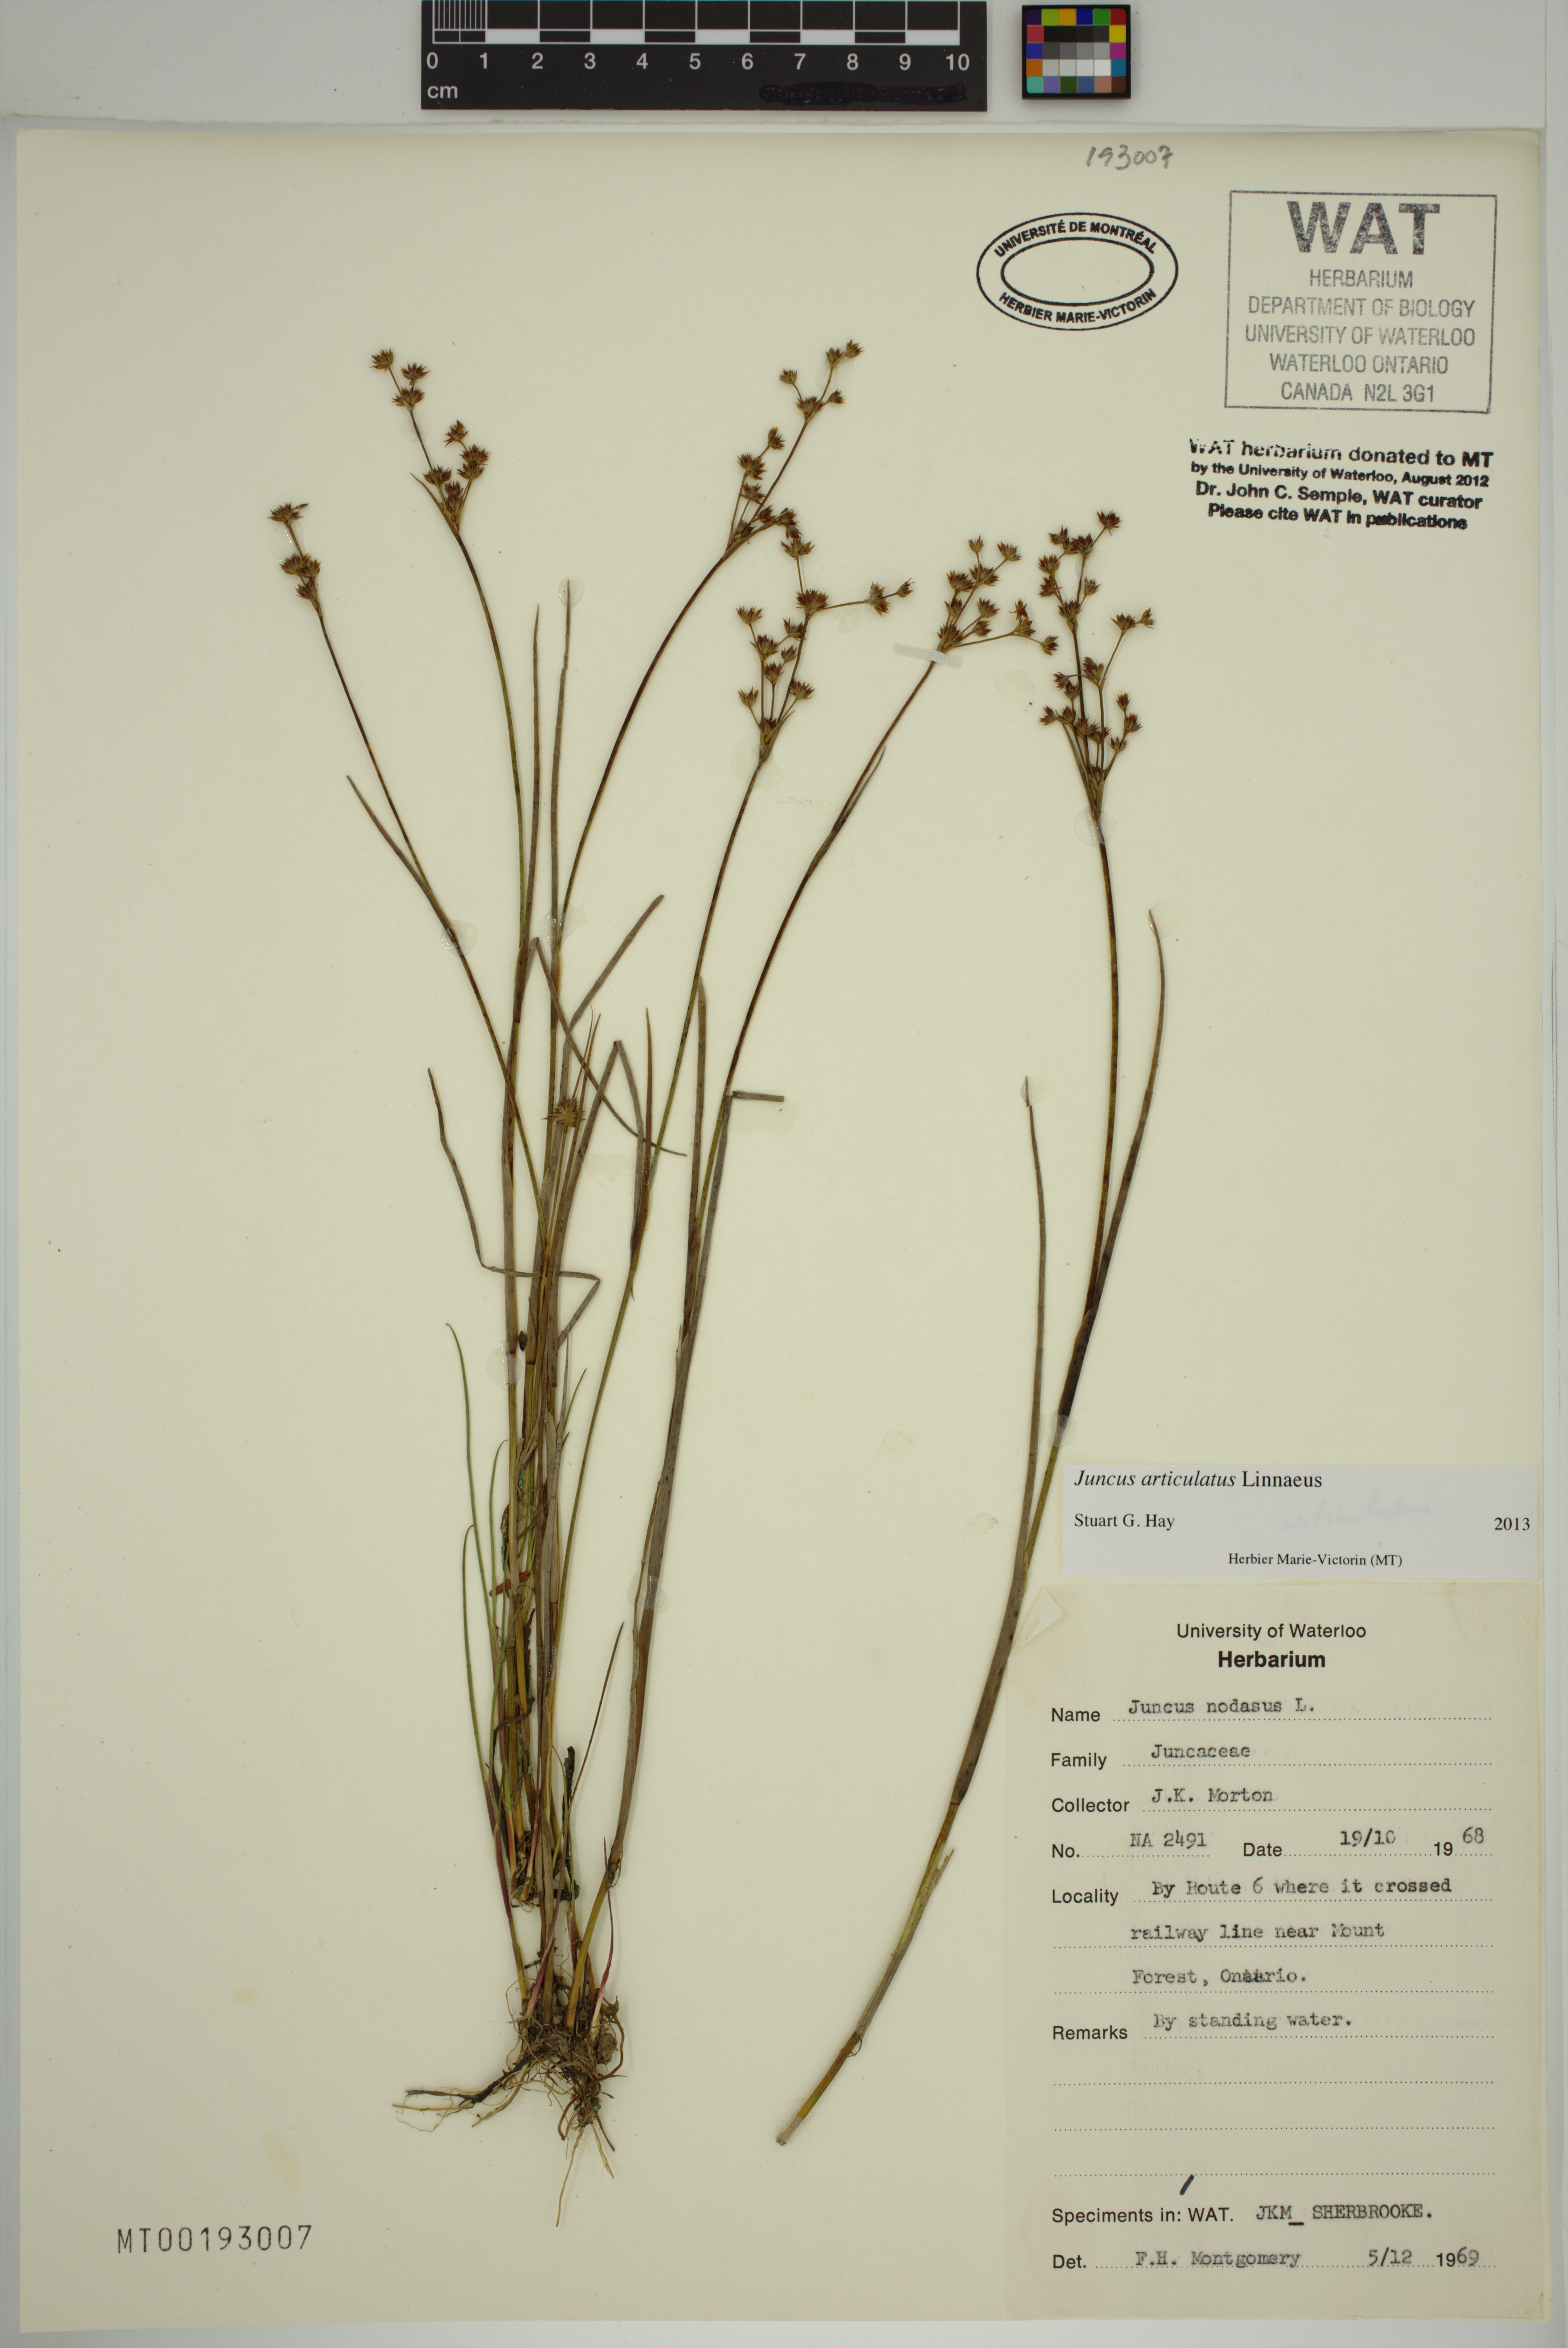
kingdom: Plantae
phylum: Tracheophyta
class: Liliopsida
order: Poales
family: Juncaceae
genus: Juncus
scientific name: Juncus articulatus
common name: Jointed rush
